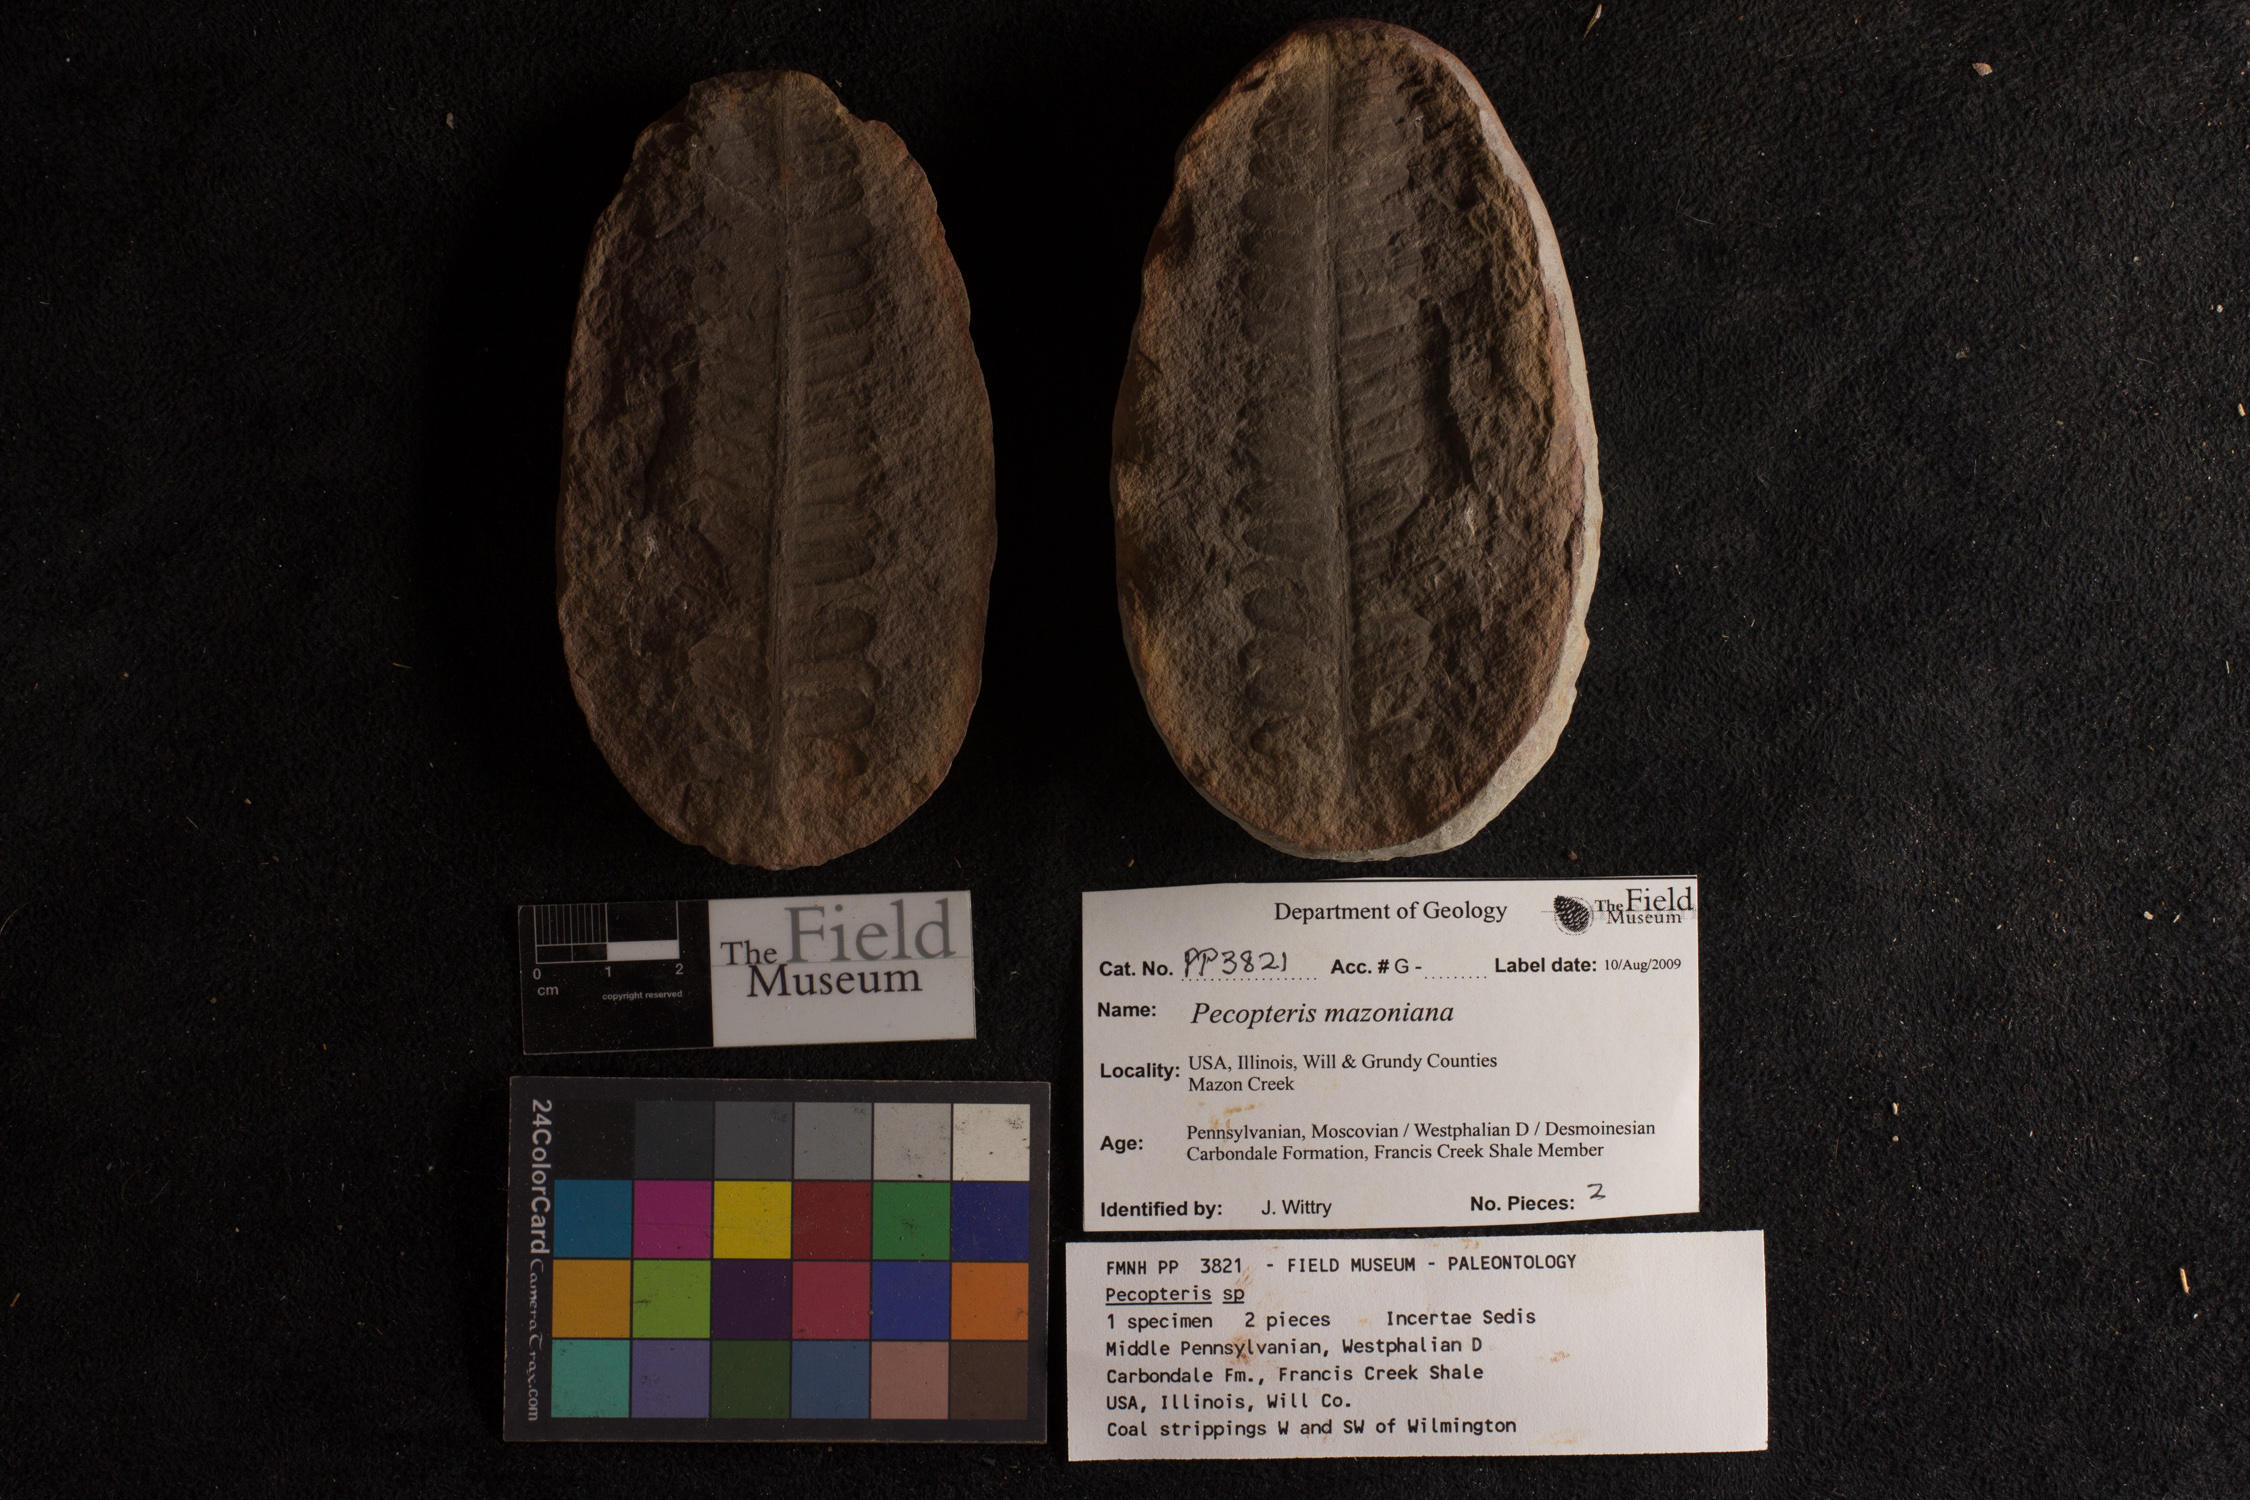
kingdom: Plantae
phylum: Tracheophyta
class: Polypodiopsida
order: Marattiales
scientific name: Marattiales
